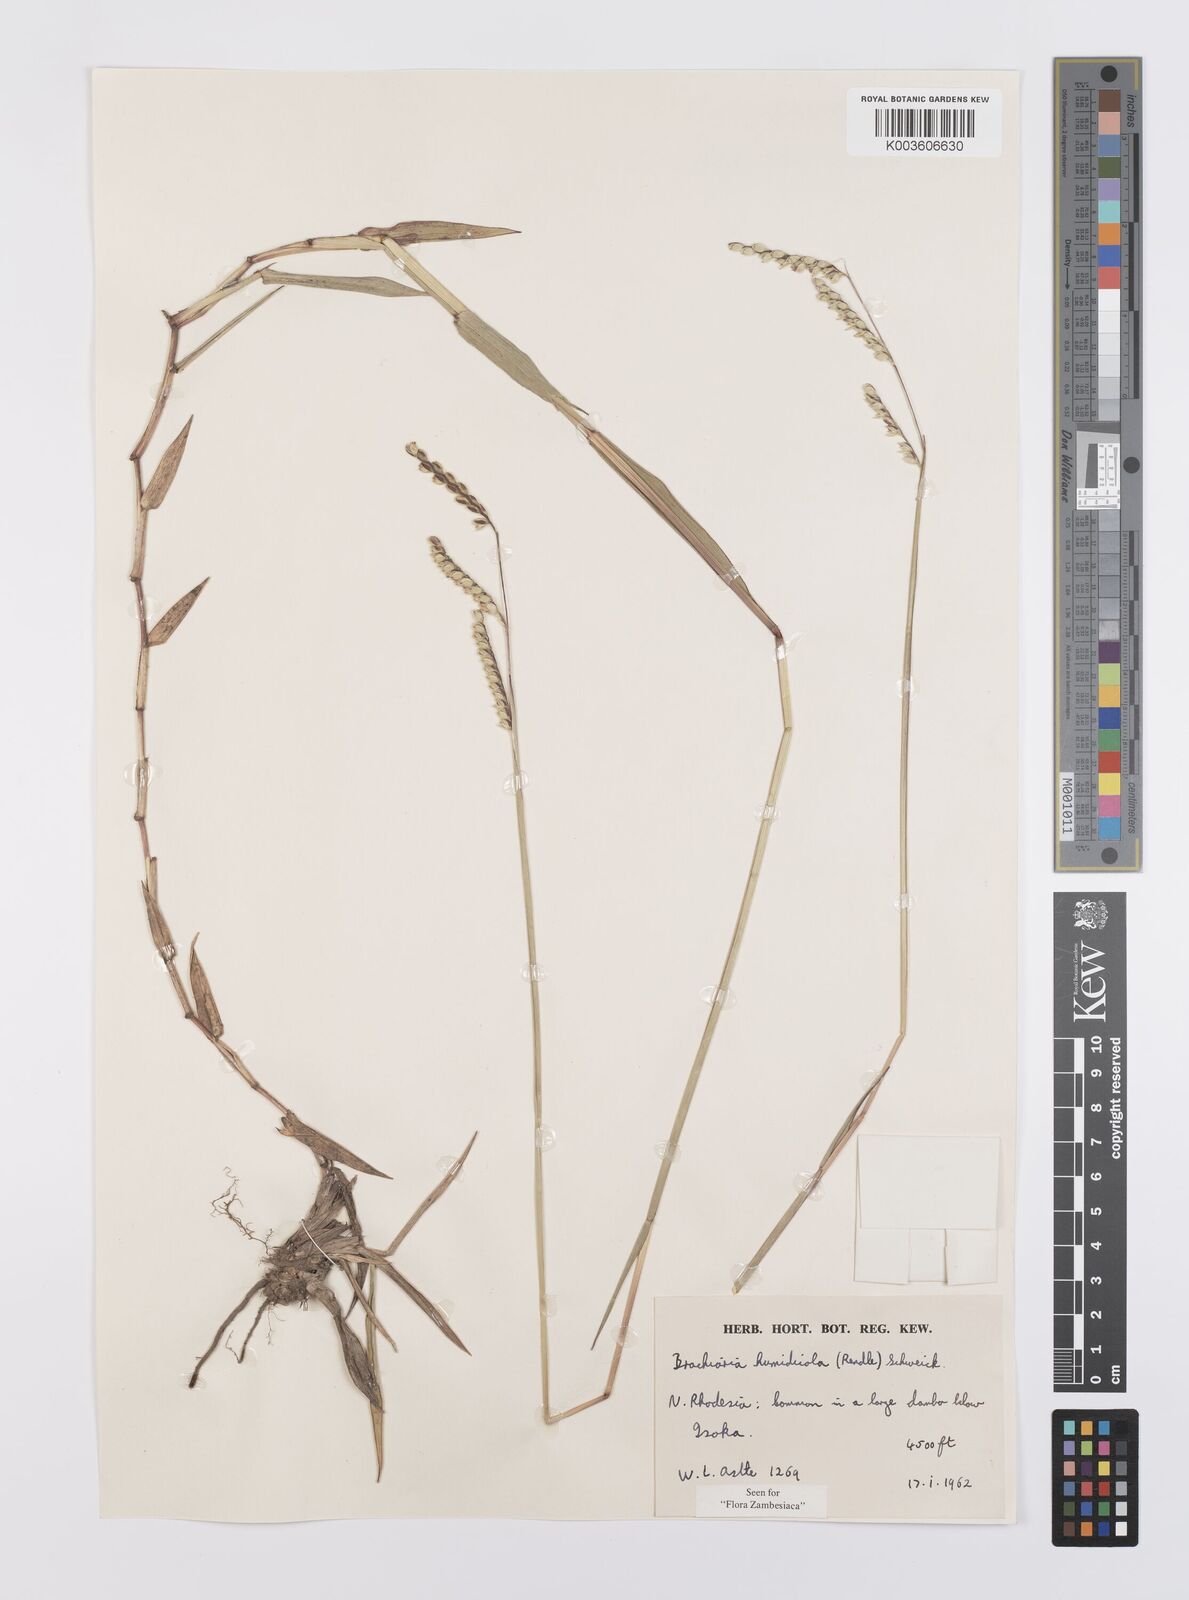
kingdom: Plantae
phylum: Tracheophyta
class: Liliopsida
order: Poales
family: Poaceae
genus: Urochloa
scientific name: Urochloa dictyoneura
